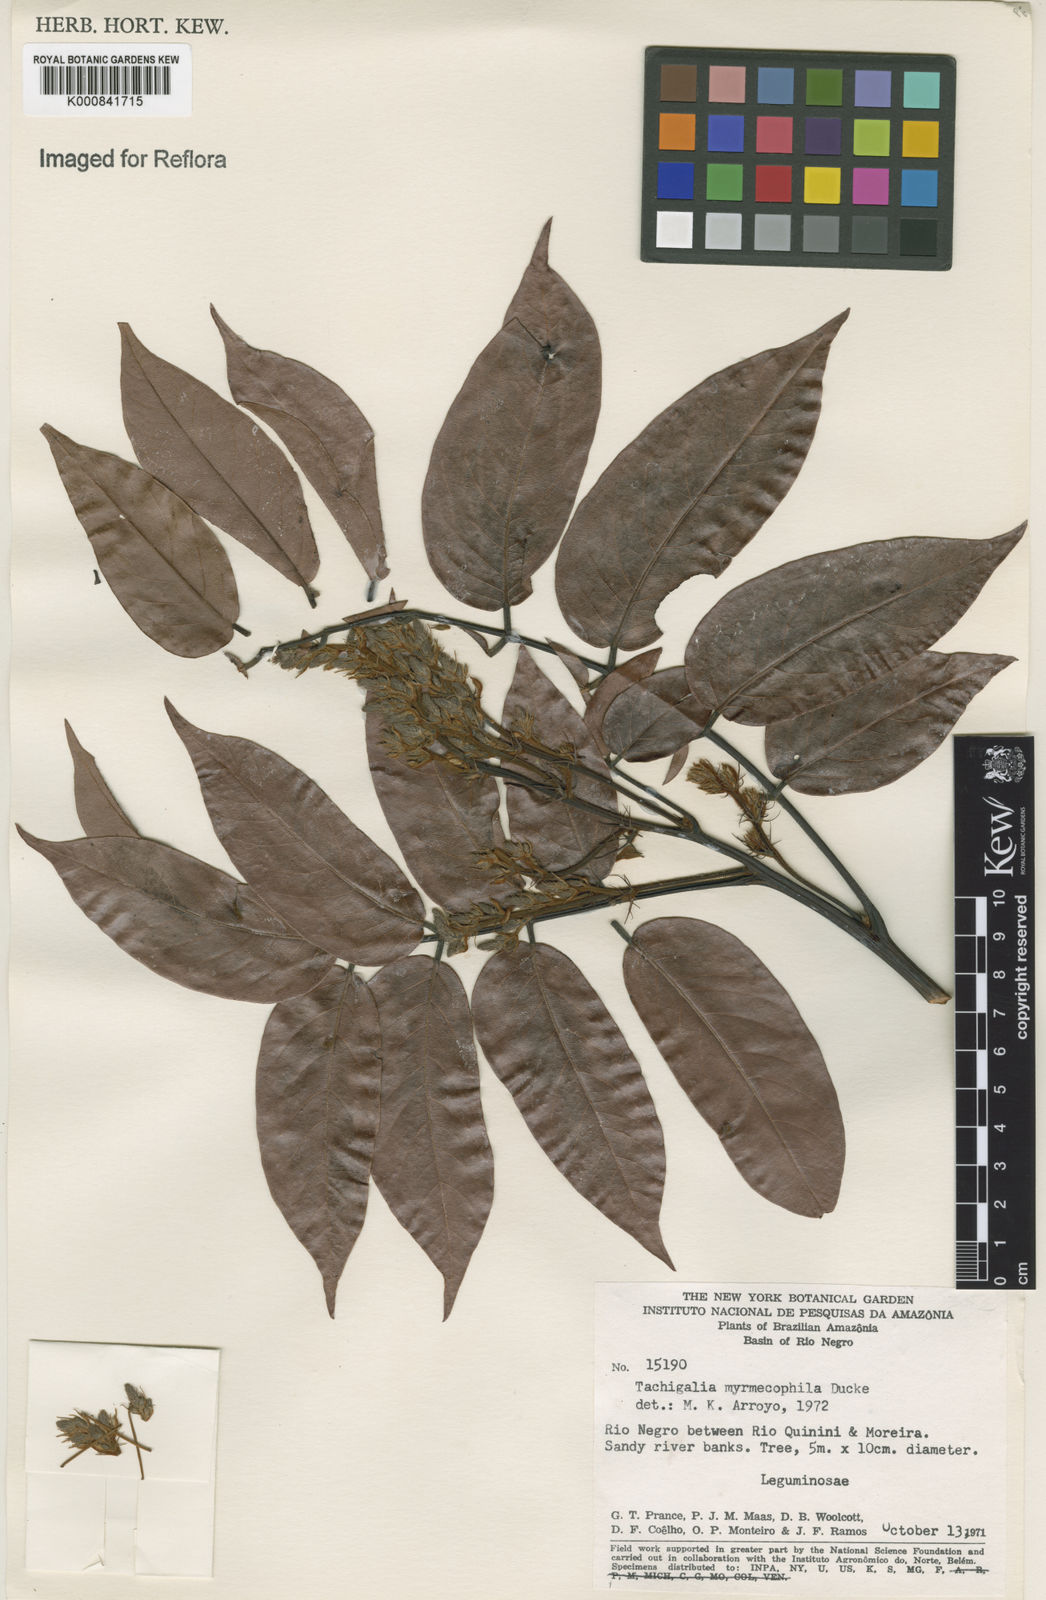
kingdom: Plantae
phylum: Tracheophyta
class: Magnoliopsida
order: Fabales
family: Fabaceae
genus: Tachigali
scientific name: Tachigali glauca
